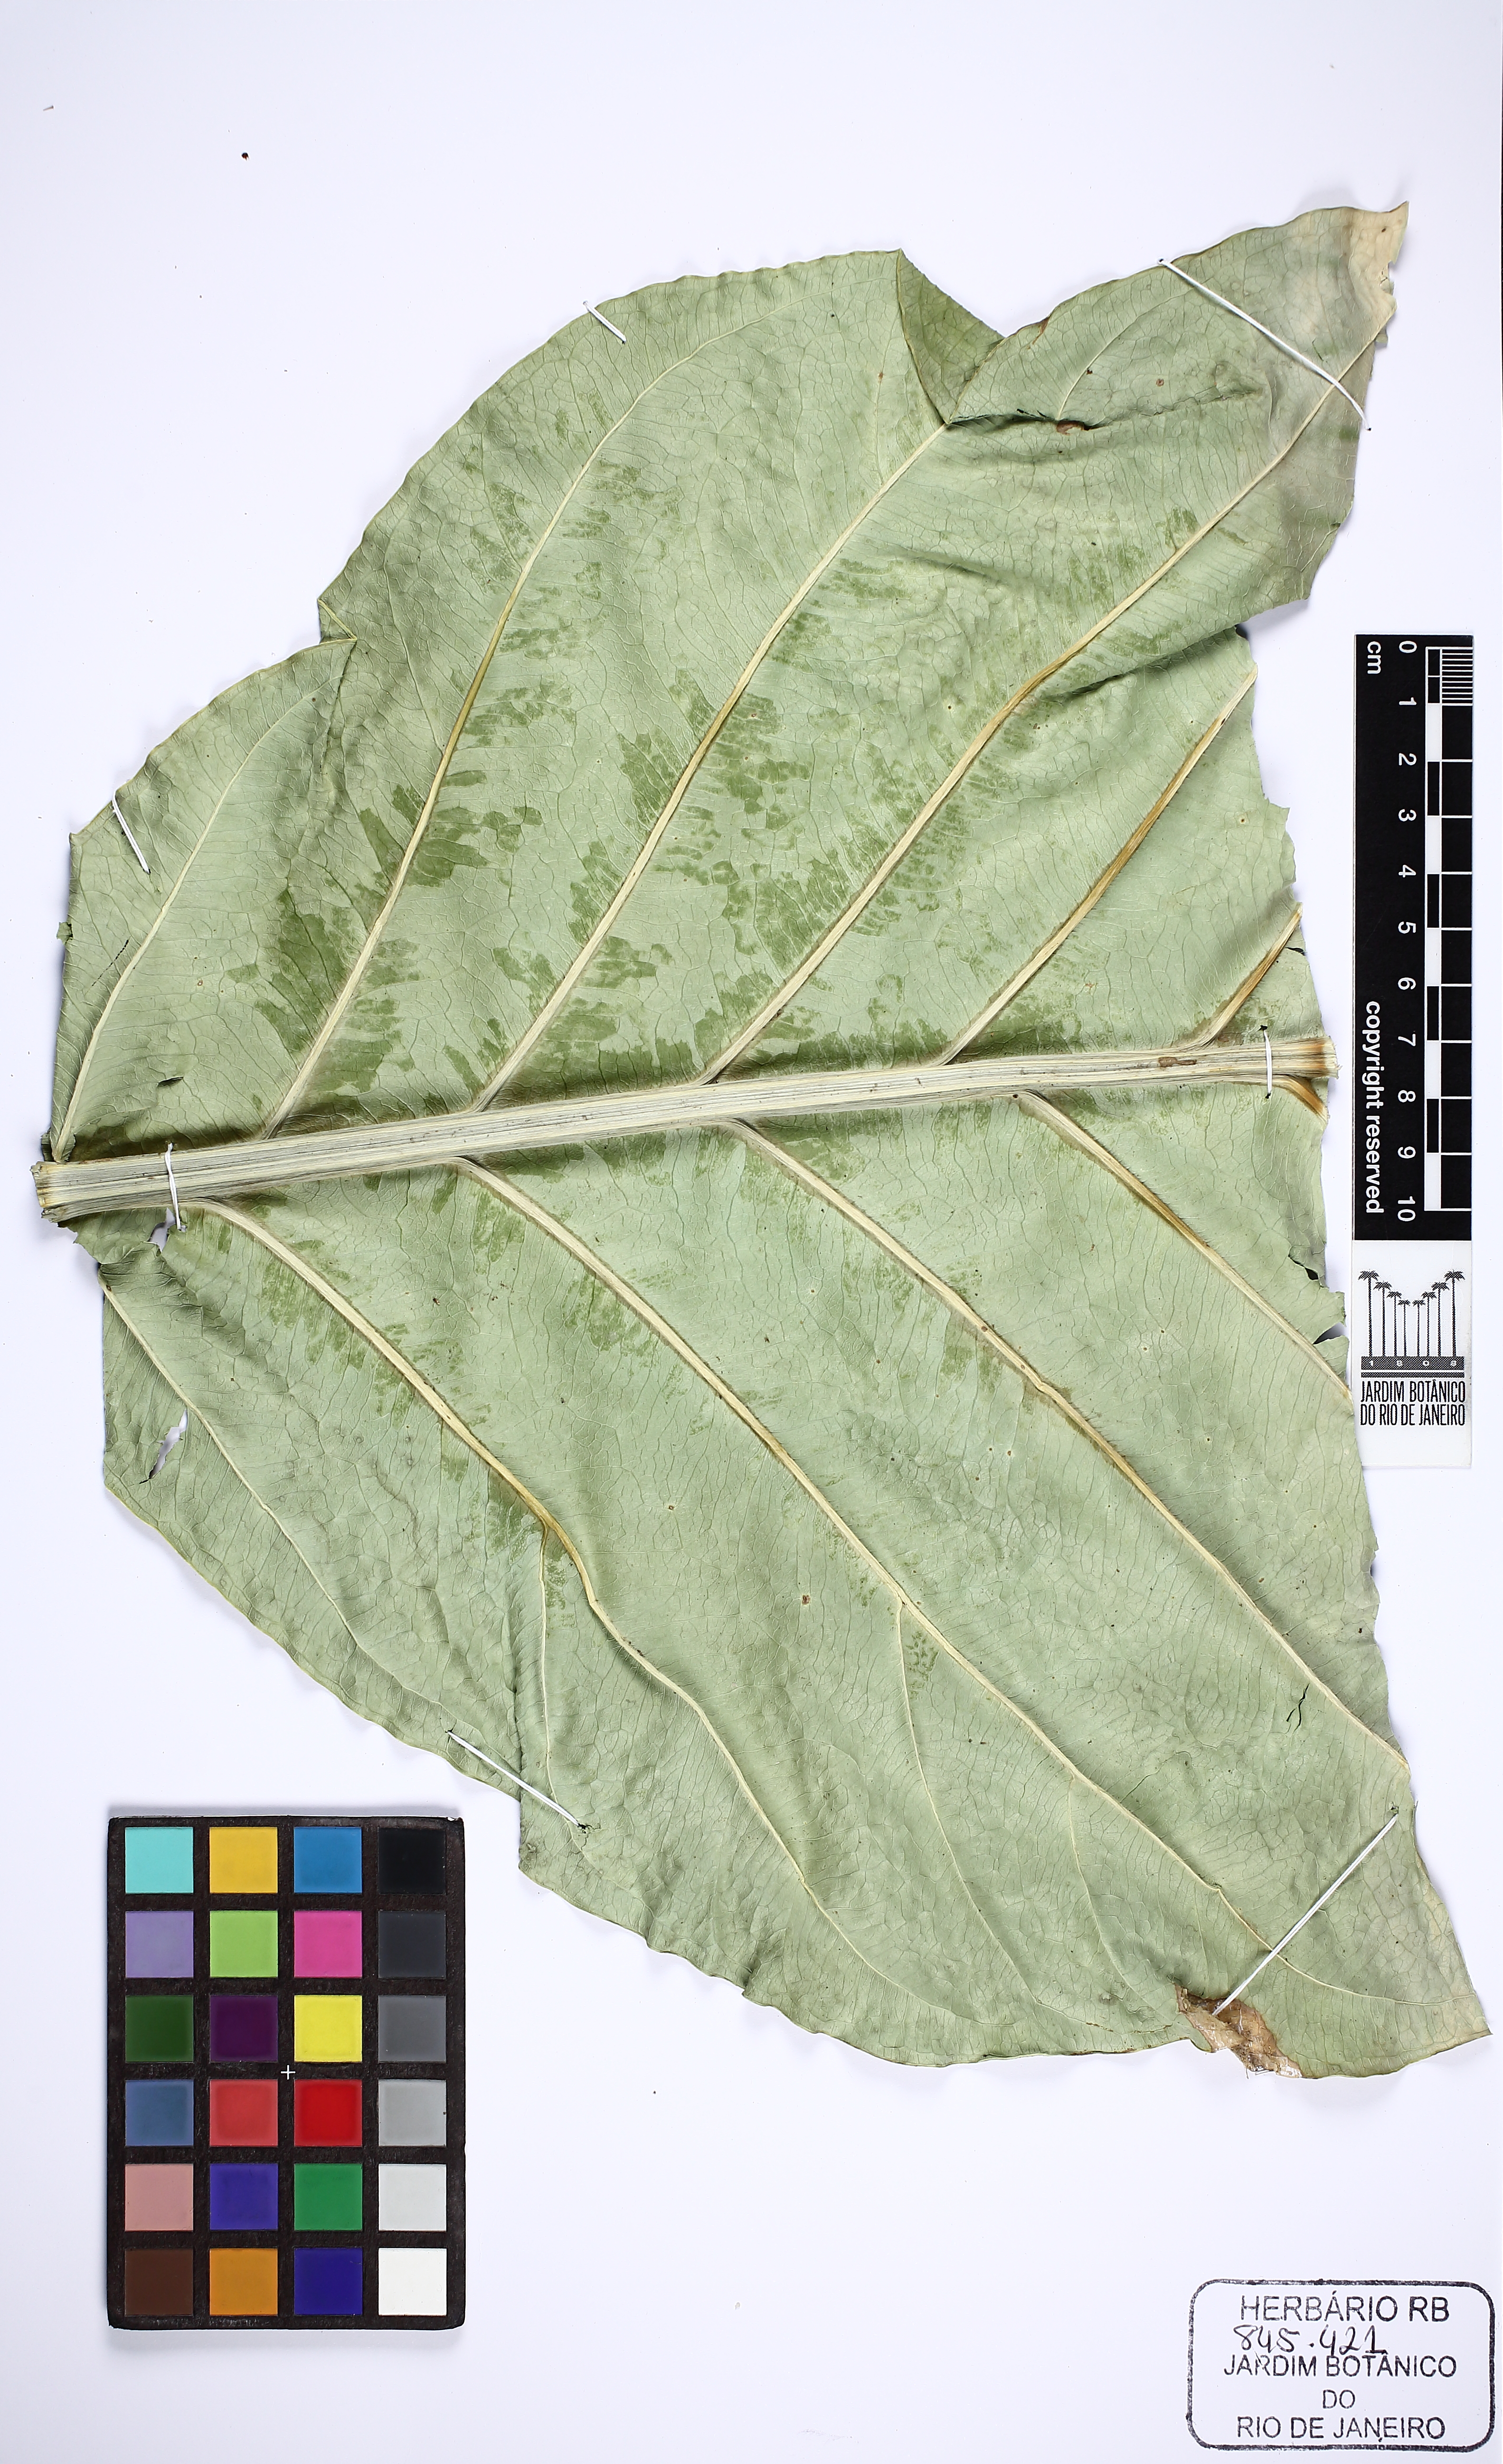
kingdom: Plantae
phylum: Tracheophyta
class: Liliopsida
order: Alismatales
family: Araceae
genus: Anthurium
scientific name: Anthurium cubense
